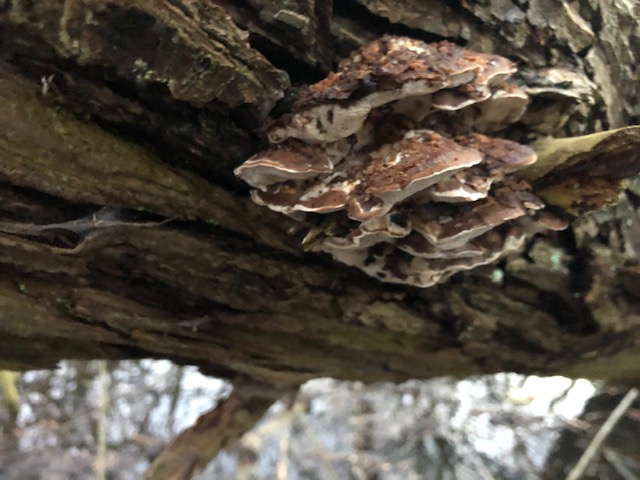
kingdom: Fungi
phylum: Basidiomycota
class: Agaricomycetes
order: Polyporales
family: Phanerochaetaceae
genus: Bjerkandera
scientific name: Bjerkandera fumosa
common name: grågul sodporesvamp
